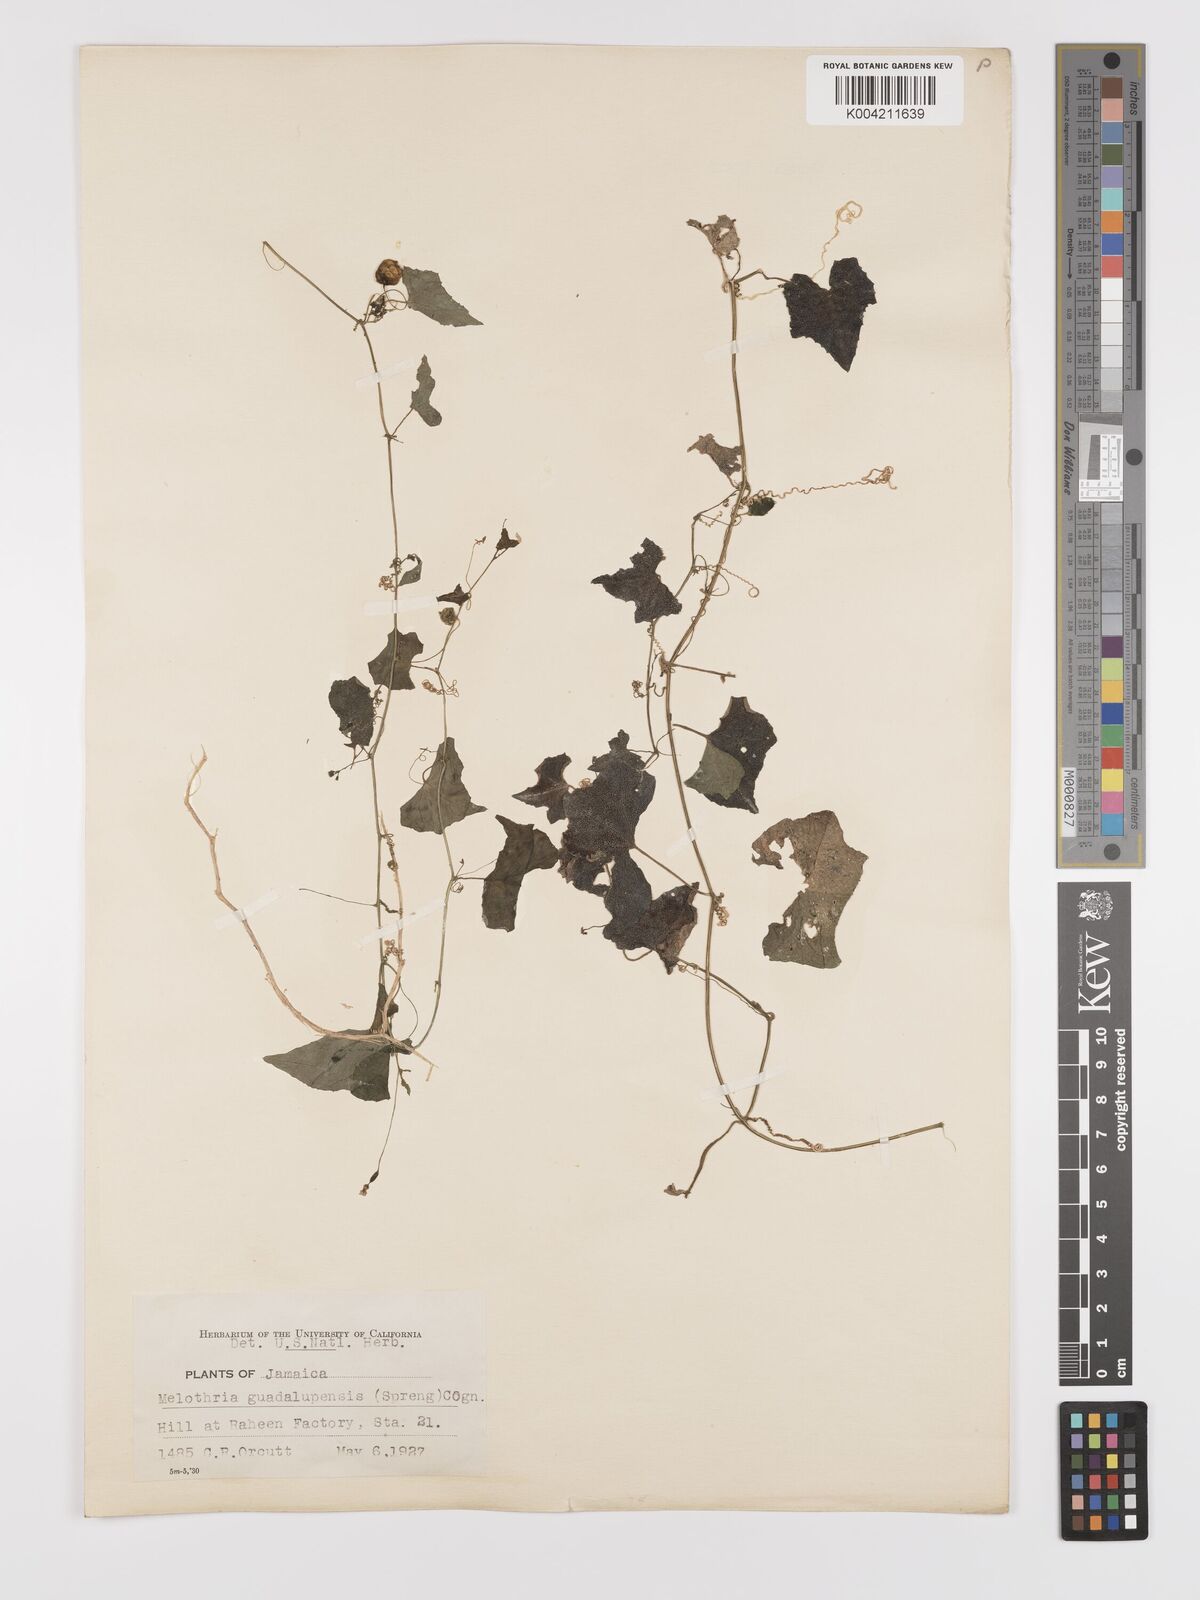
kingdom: Plantae
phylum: Tracheophyta
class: Magnoliopsida
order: Cucurbitales
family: Cucurbitaceae
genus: Melothria
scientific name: Melothria
